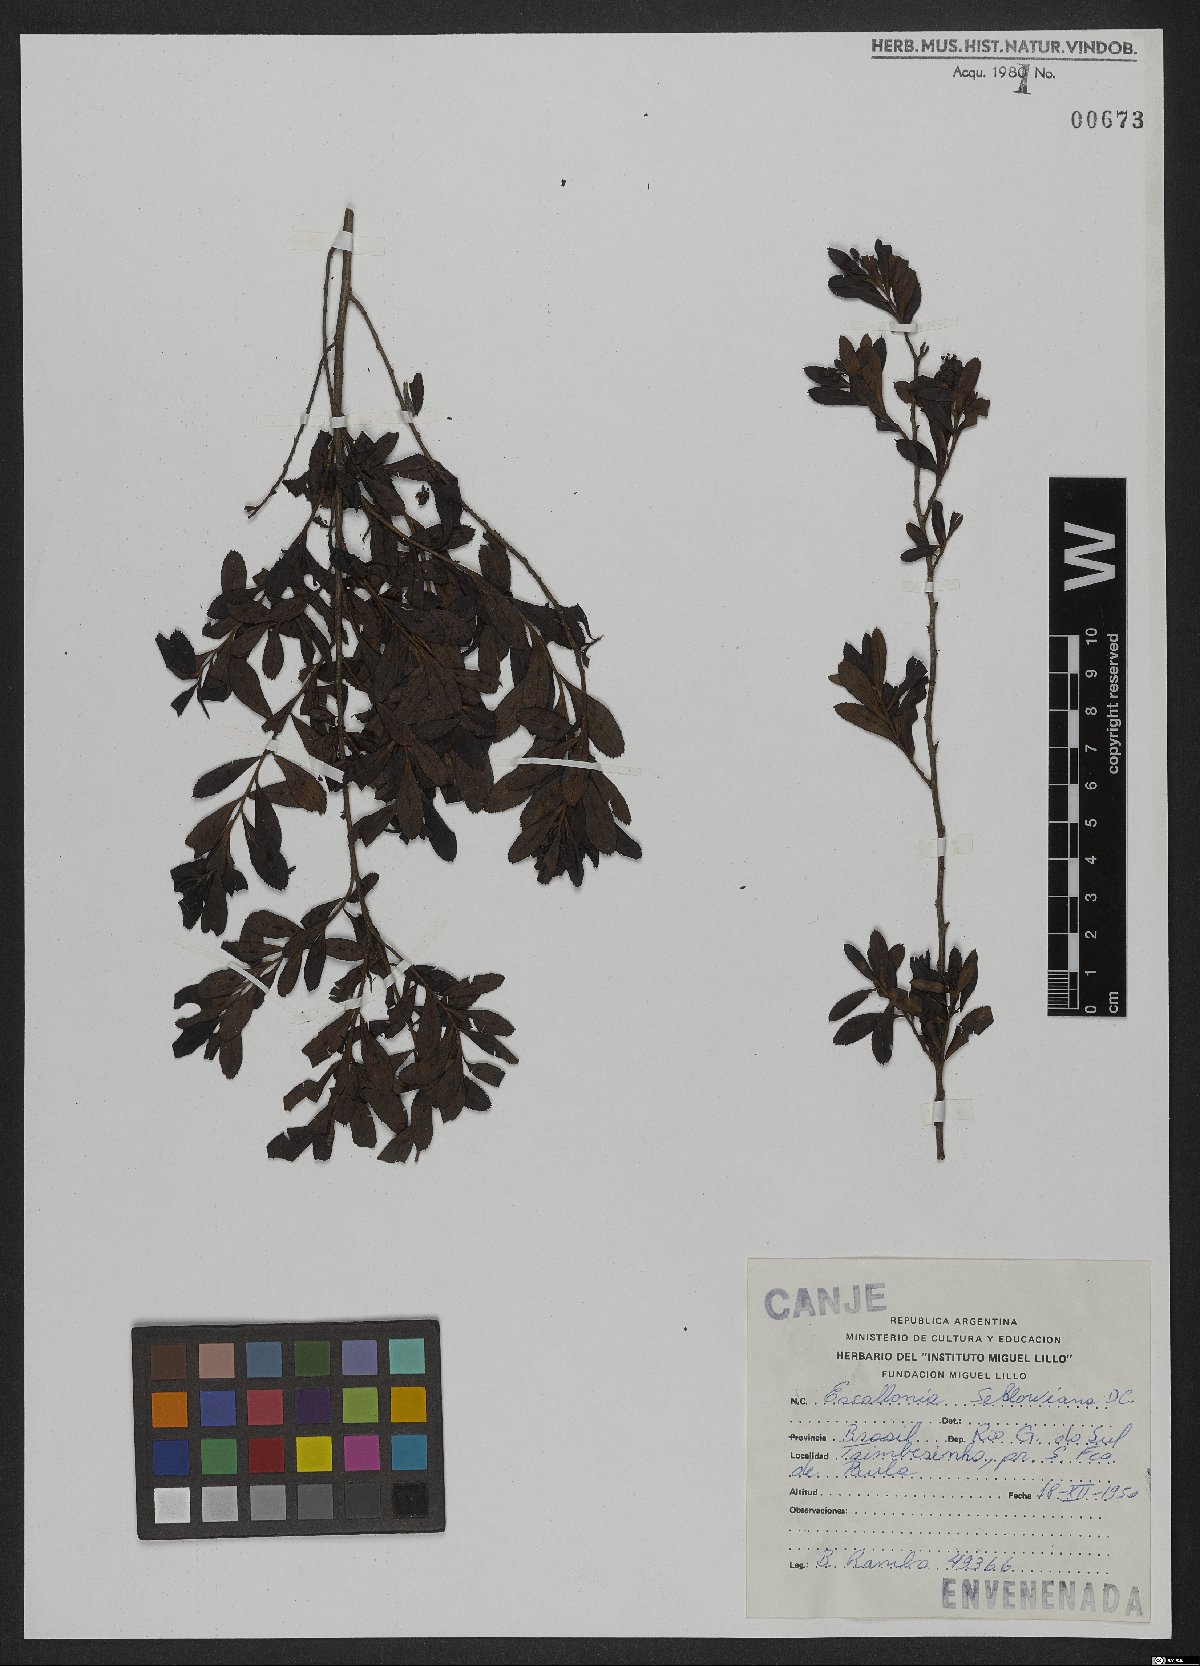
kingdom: Plantae
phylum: Tracheophyta
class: Magnoliopsida
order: Escalloniales
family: Escalloniaceae
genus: Escallonia
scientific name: Escallonia megapotamica
